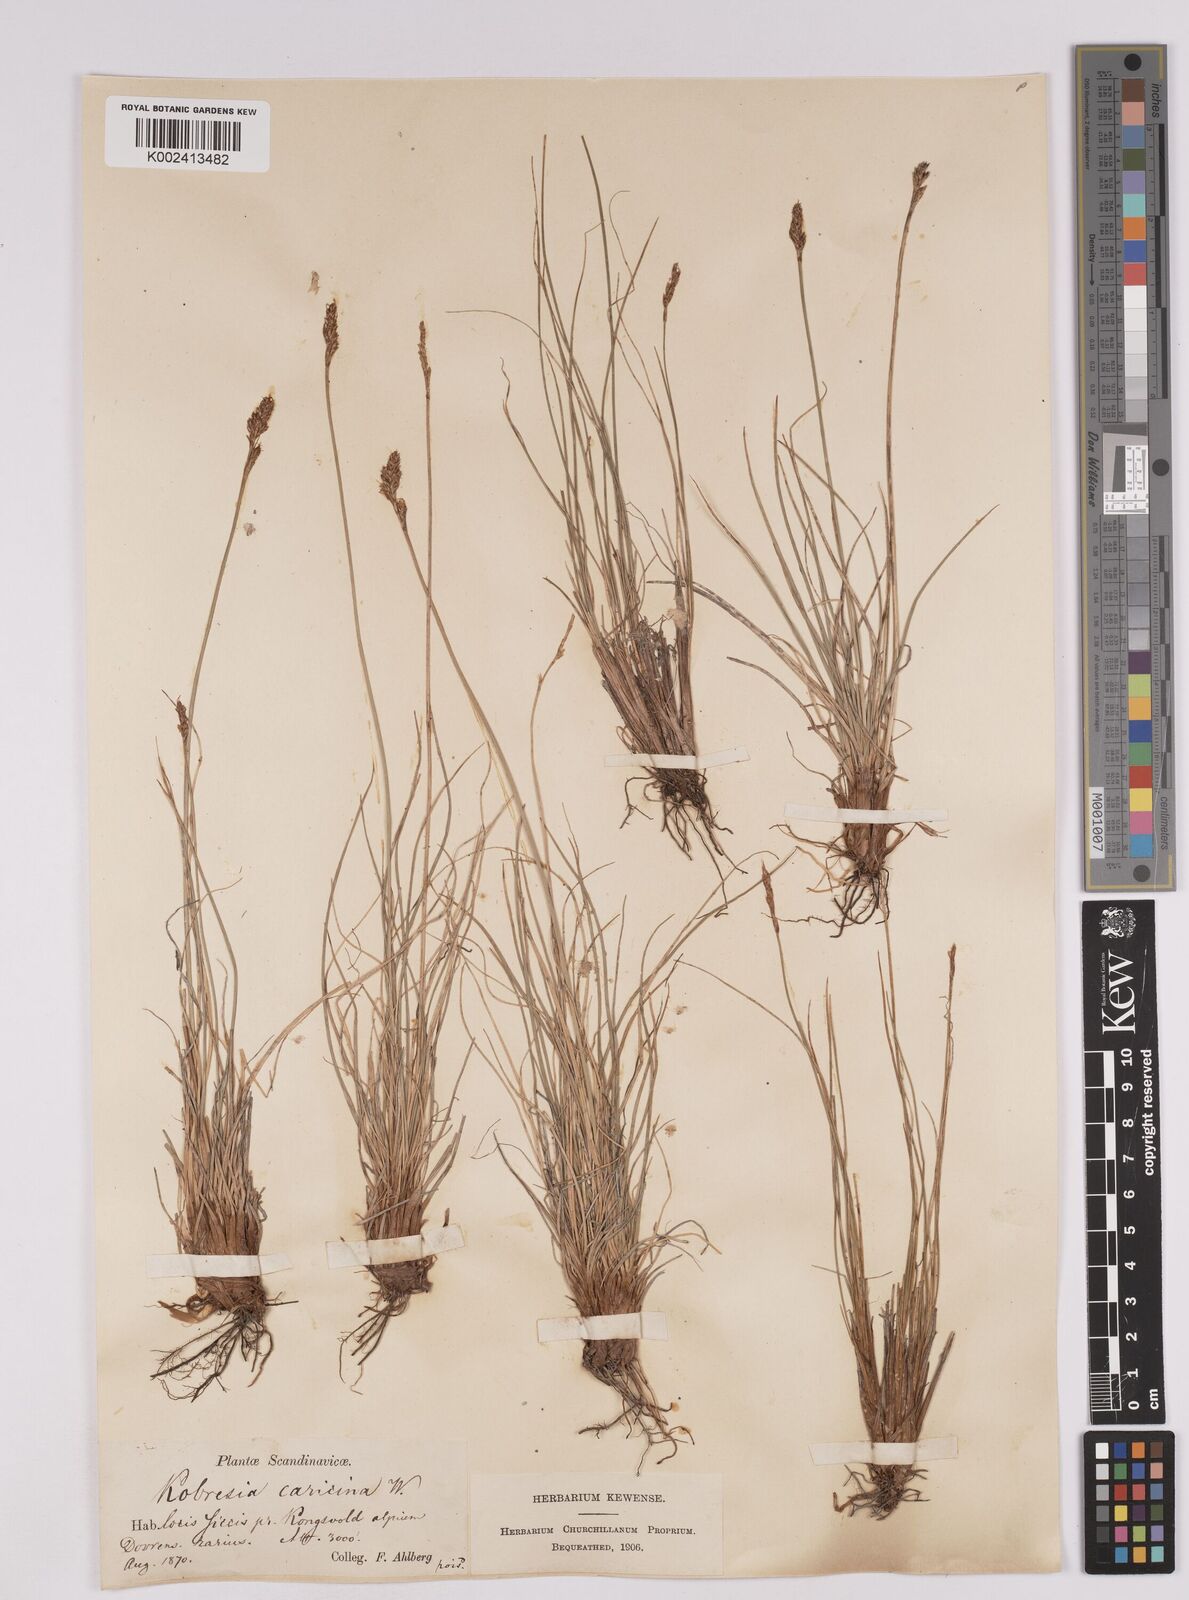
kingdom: Plantae
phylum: Tracheophyta
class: Liliopsida
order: Poales
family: Cyperaceae
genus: Carex
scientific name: Carex simpliciuscula
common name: Simple bog sedge
